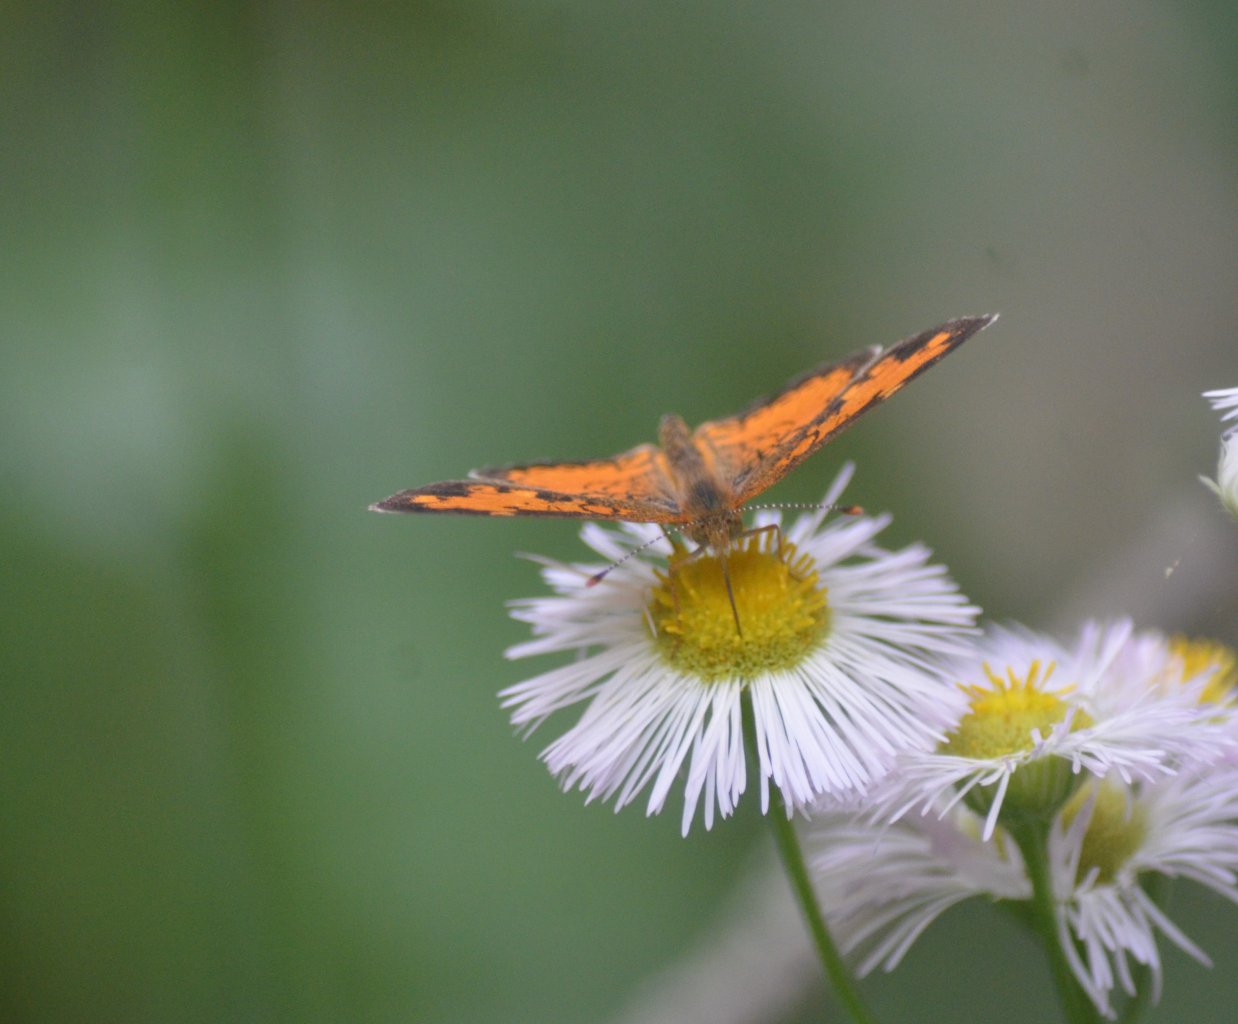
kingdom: Animalia
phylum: Arthropoda
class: Insecta
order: Lepidoptera
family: Nymphalidae
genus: Phyciodes
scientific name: Phyciodes tharos
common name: Northern Crescent
